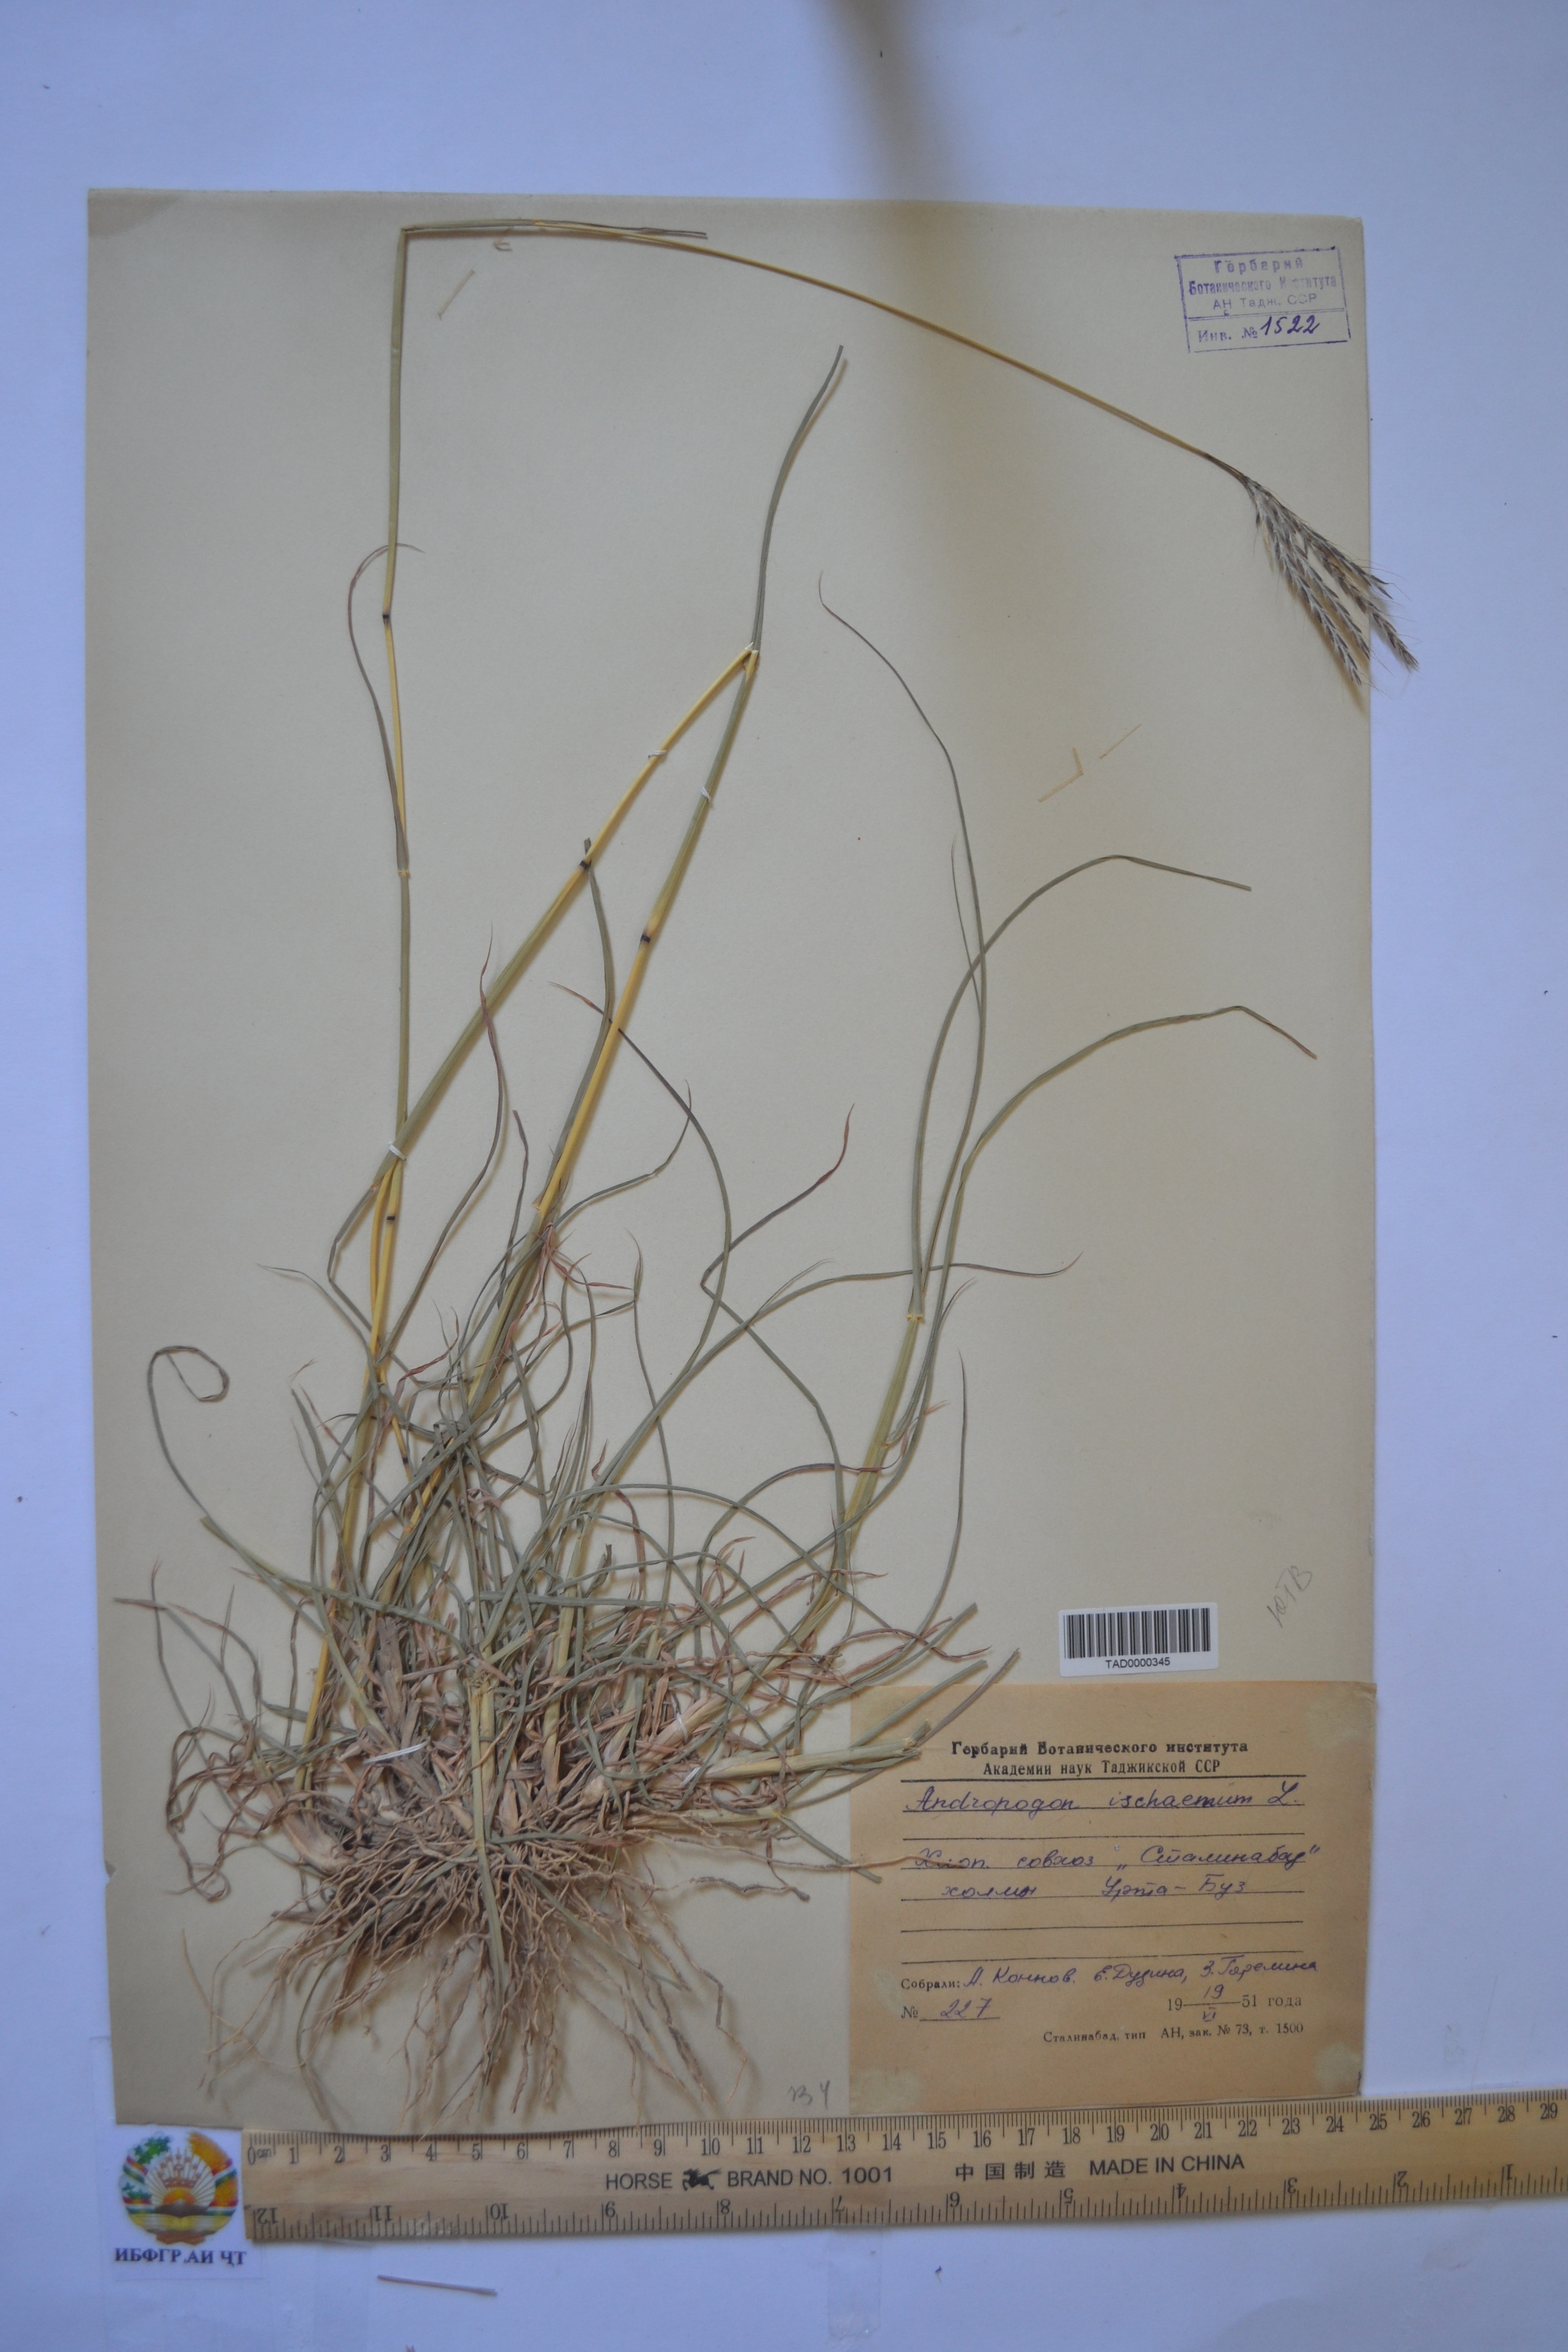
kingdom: Plantae
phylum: Tracheophyta
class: Liliopsida
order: Poales
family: Poaceae
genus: Andropogon
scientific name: Andropogon ischaemum
